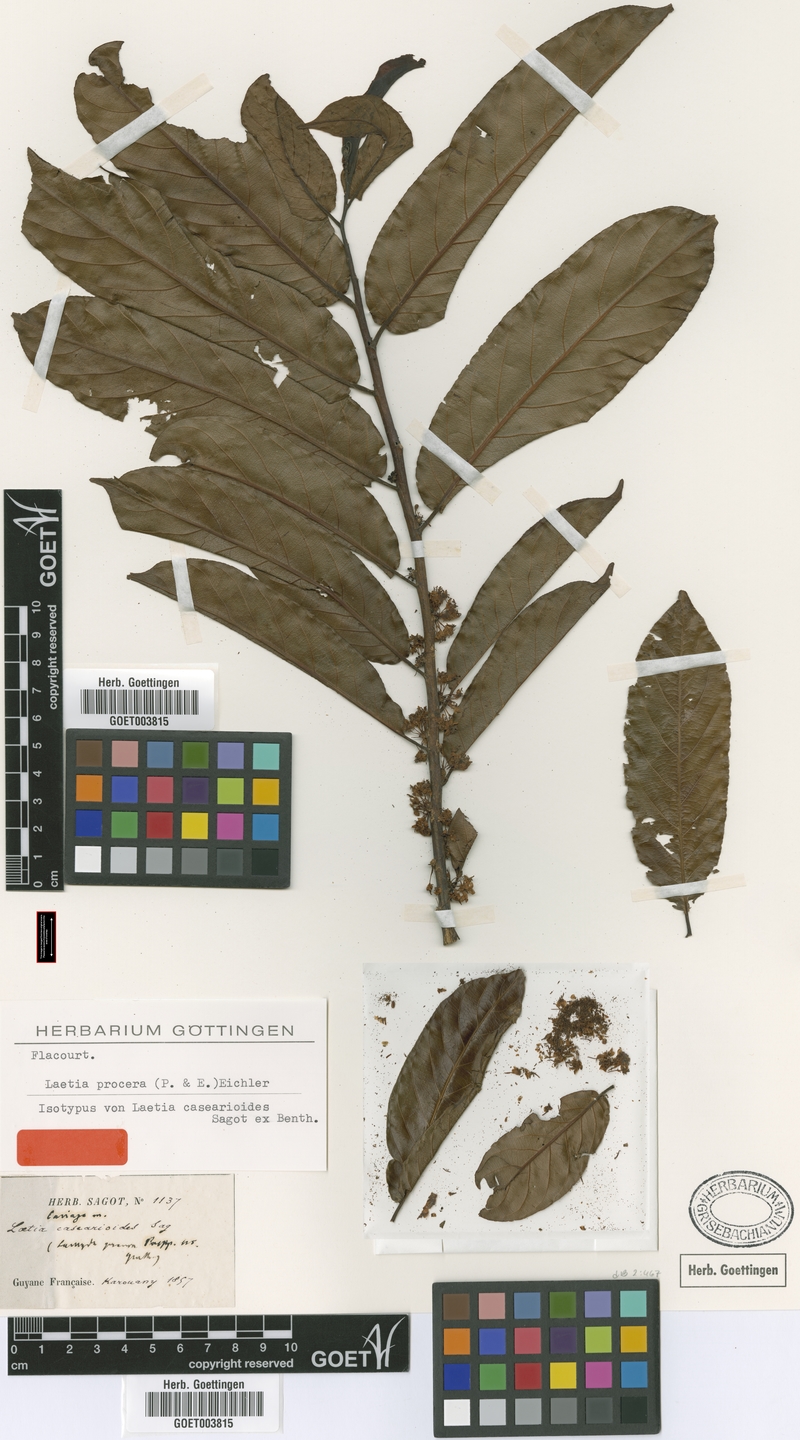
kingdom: Plantae
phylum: Tracheophyta
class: Magnoliopsida
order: Malpighiales
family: Salicaceae
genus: Casearia
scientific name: Casearia bicolor
